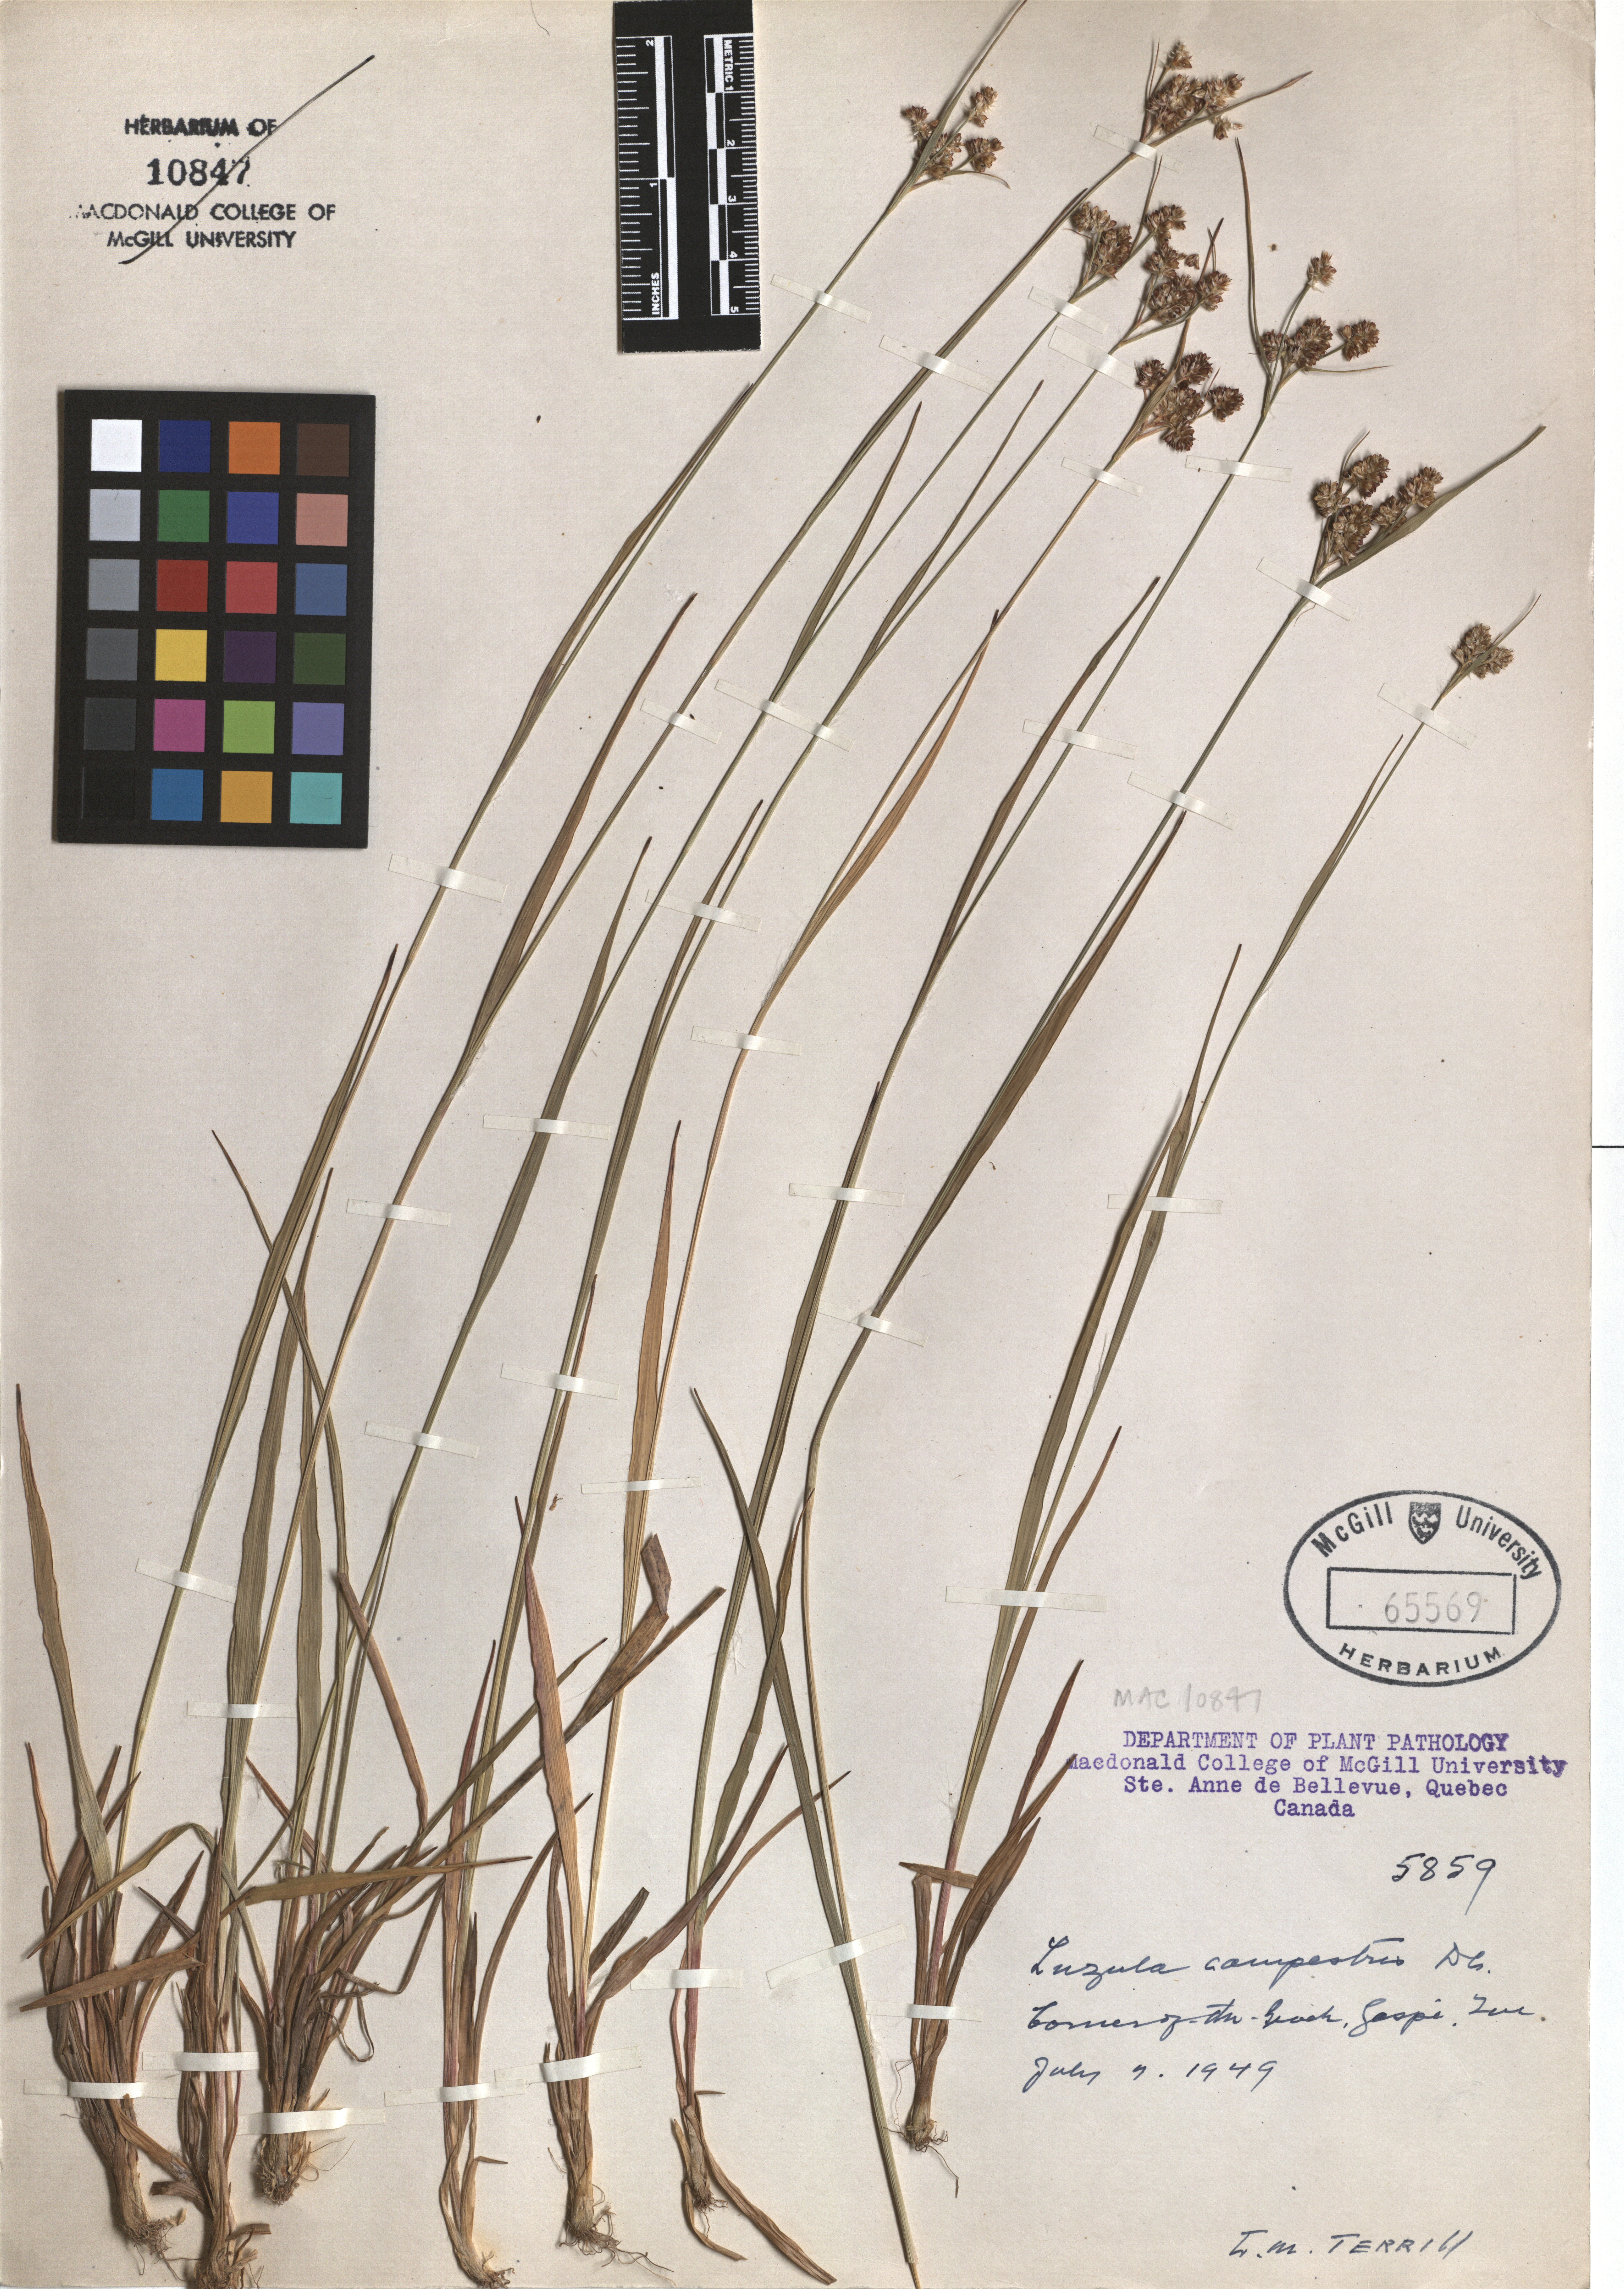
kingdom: Plantae
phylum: Tracheophyta
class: Liliopsida
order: Poales
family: Juncaceae
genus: Luzula
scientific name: Luzula campestris
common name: Field wood-rush
